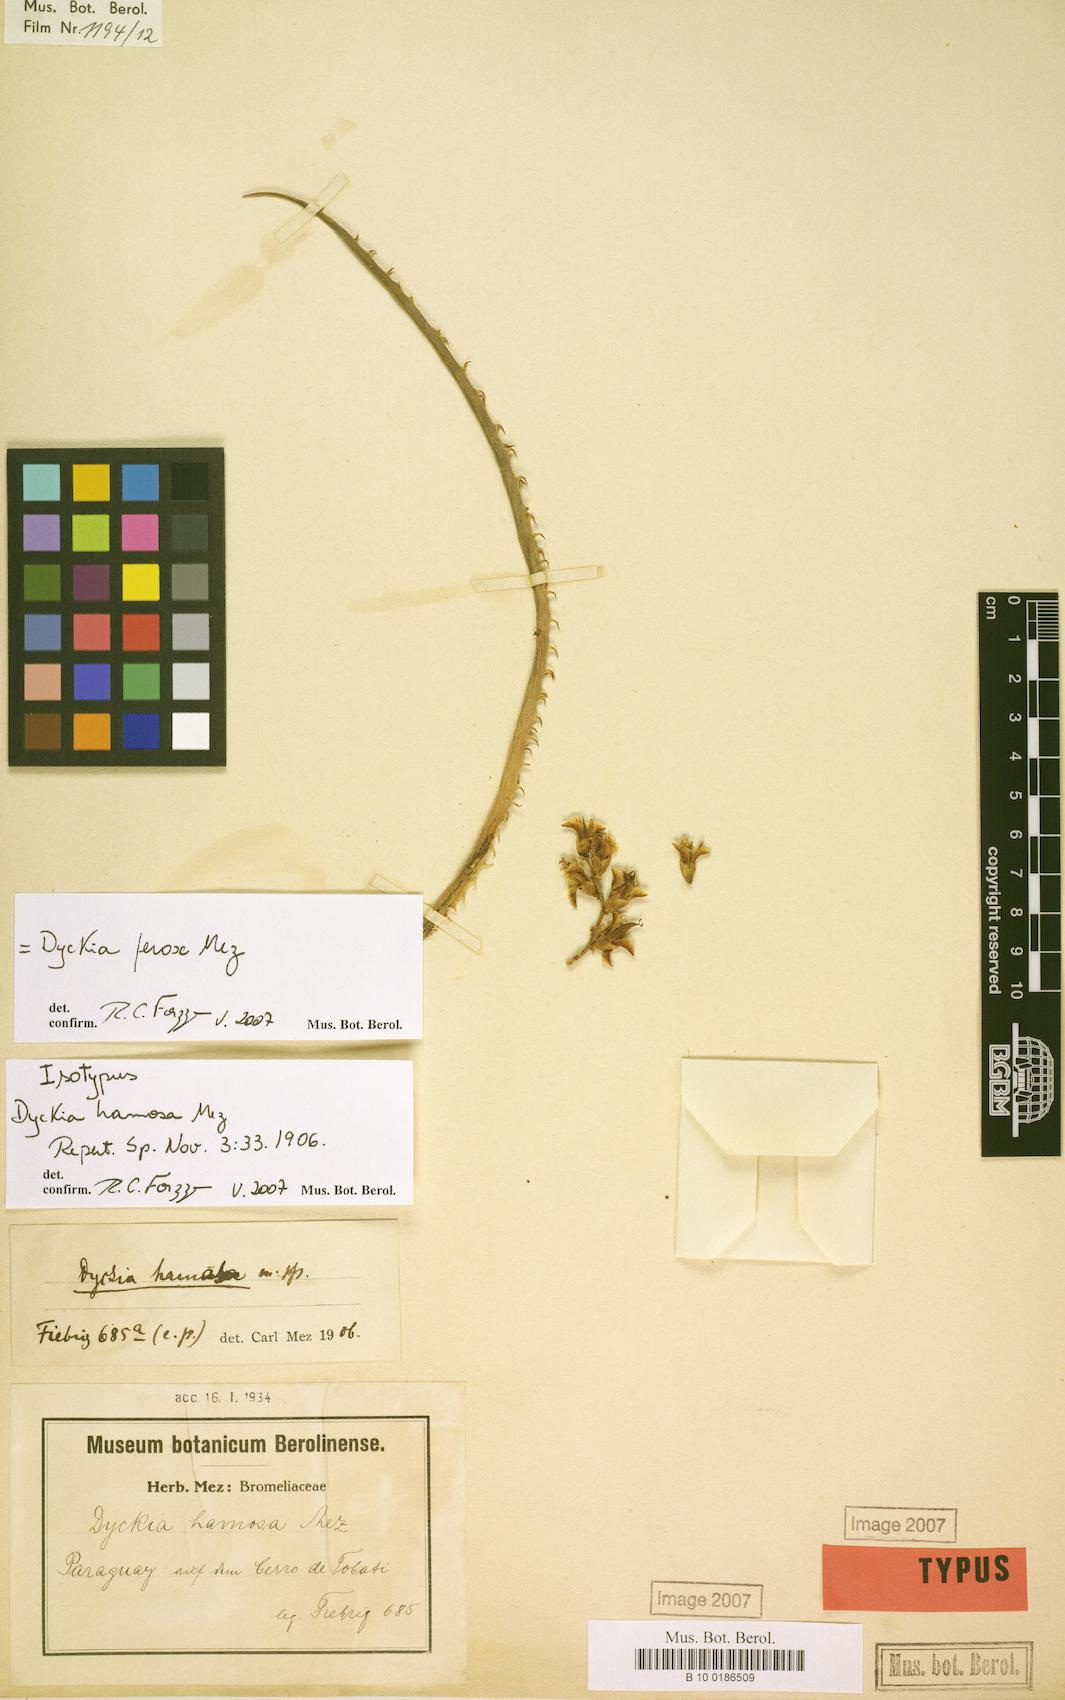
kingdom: Plantae
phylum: Tracheophyta
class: Liliopsida
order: Poales
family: Bromeliaceae
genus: Dyckia
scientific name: Dyckia ferox
